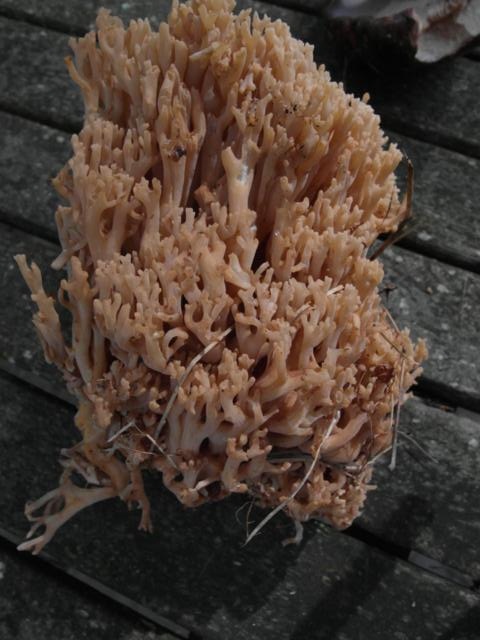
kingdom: Fungi
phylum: Basidiomycota
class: Agaricomycetes
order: Gomphales
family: Gomphaceae
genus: Ramaria
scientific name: Ramaria
